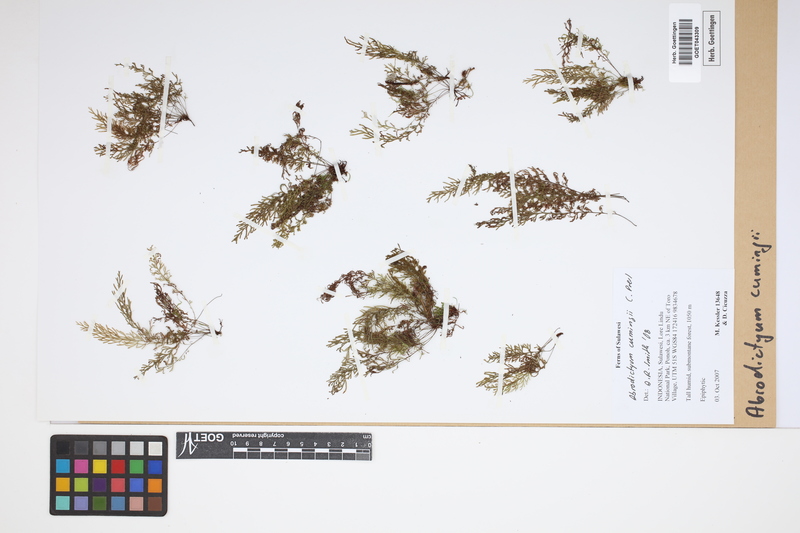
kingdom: Plantae
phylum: Tracheophyta
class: Polypodiopsida
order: Hymenophyllales
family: Hymenophyllaceae
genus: Abrodictyum
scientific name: Abrodictyum cumingii
